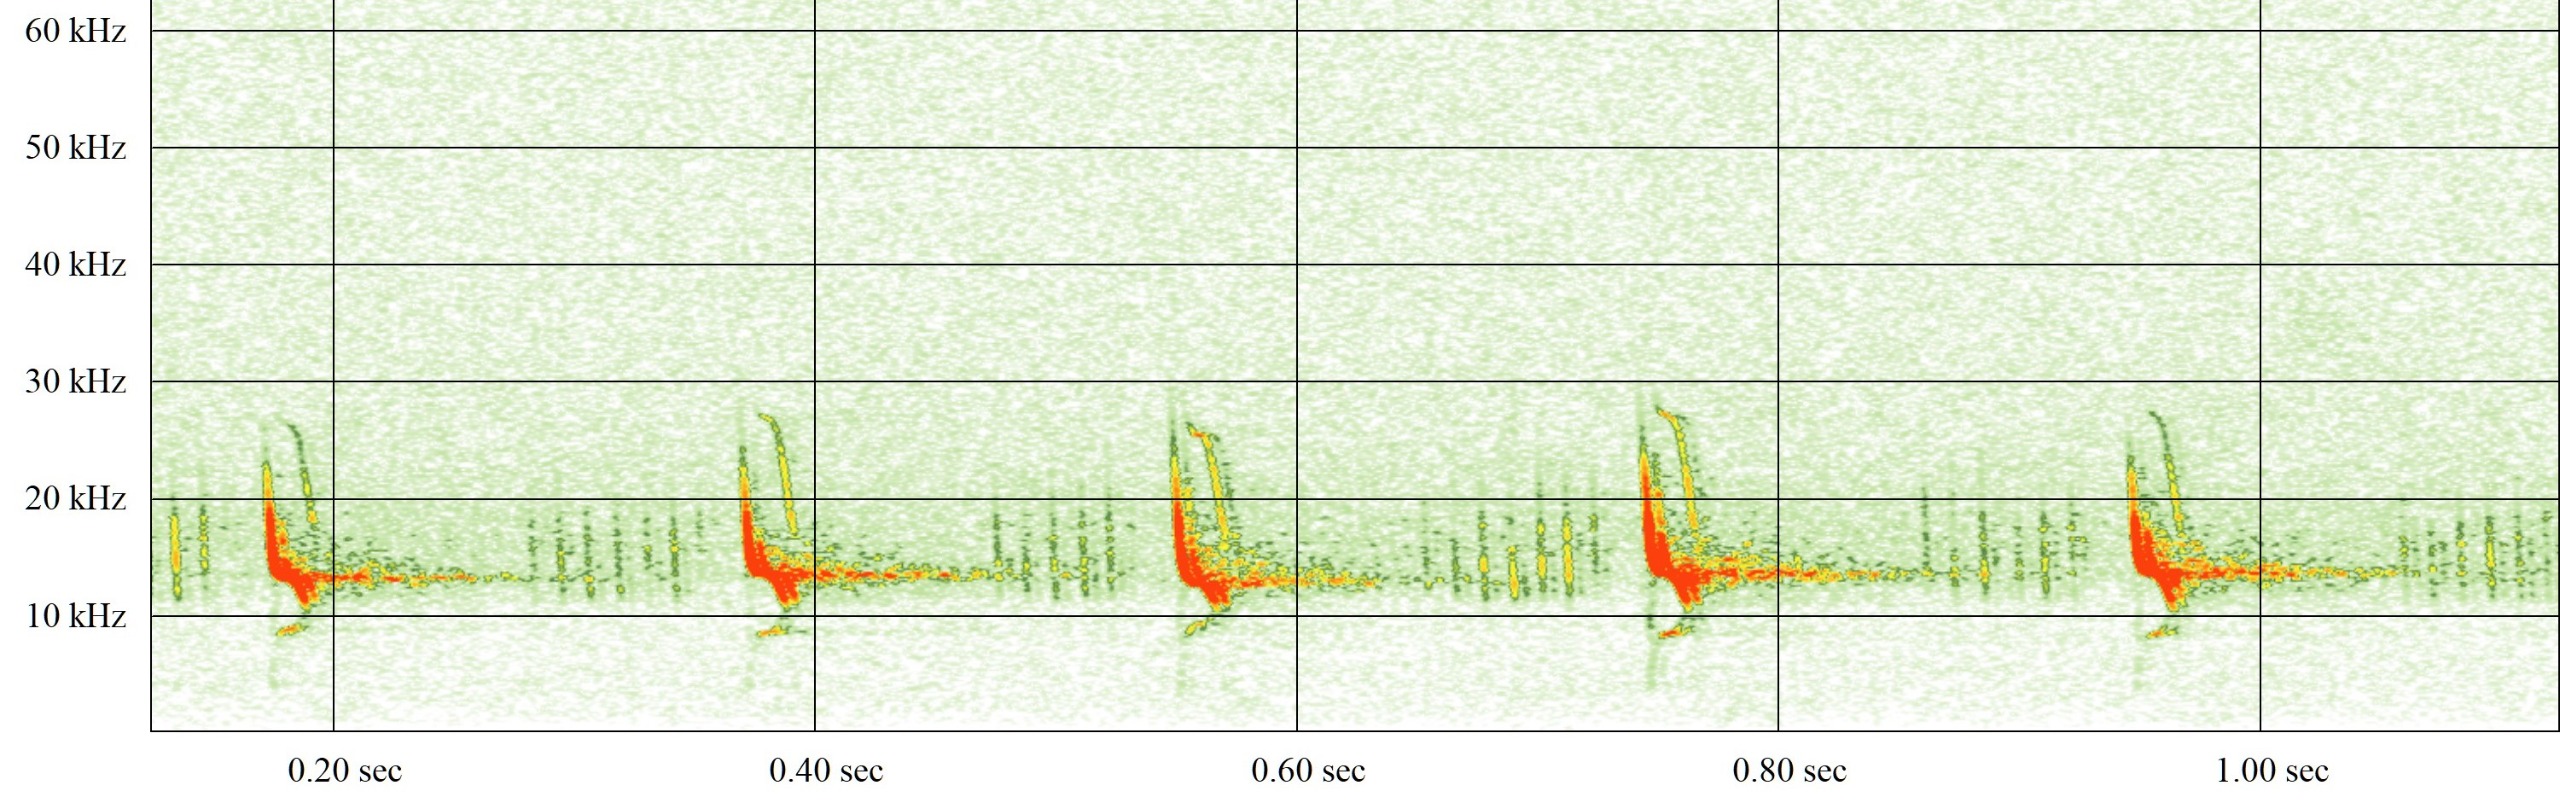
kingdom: Animalia
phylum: Chordata
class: Mammalia
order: Chiroptera
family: Vespertilionidae
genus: Vespertilio
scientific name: Vespertilio murinus
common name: Skimmelflagermus
